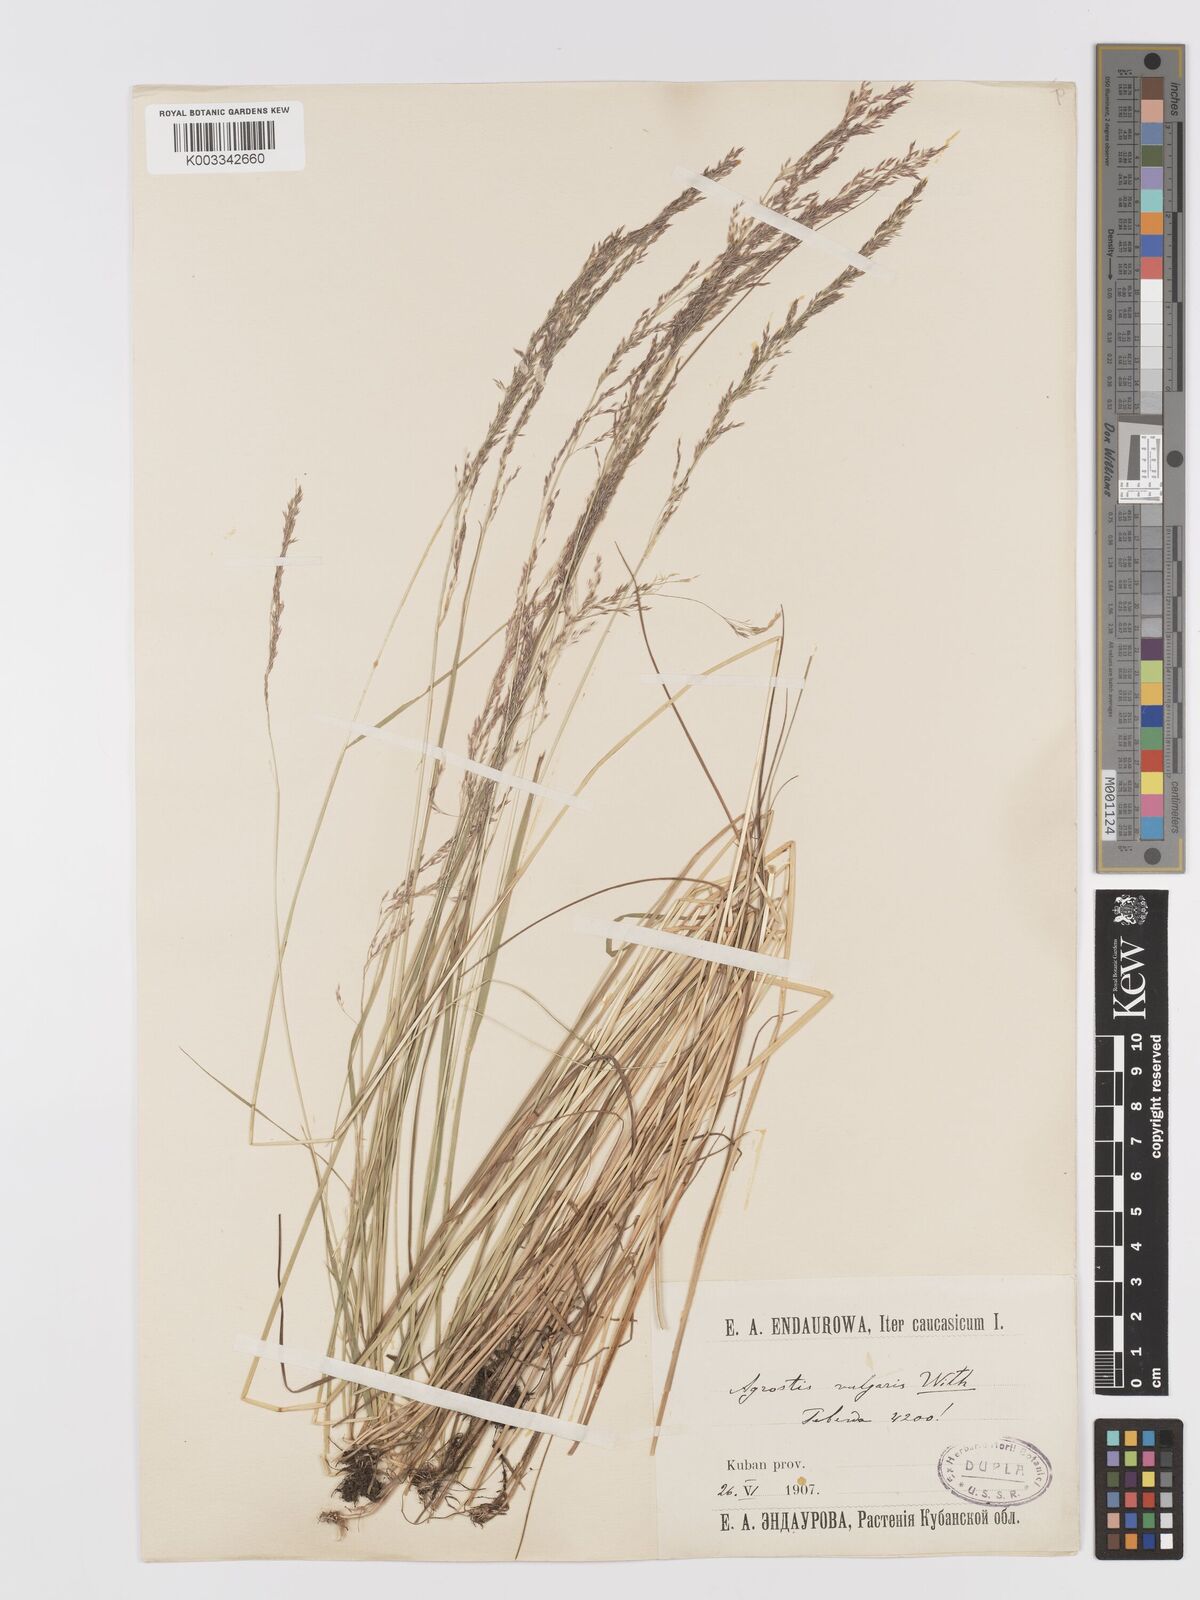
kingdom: Plantae
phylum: Tracheophyta
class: Liliopsida
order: Poales
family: Poaceae
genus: Agrostis
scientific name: Agrostis capillaris
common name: Colonial bentgrass
